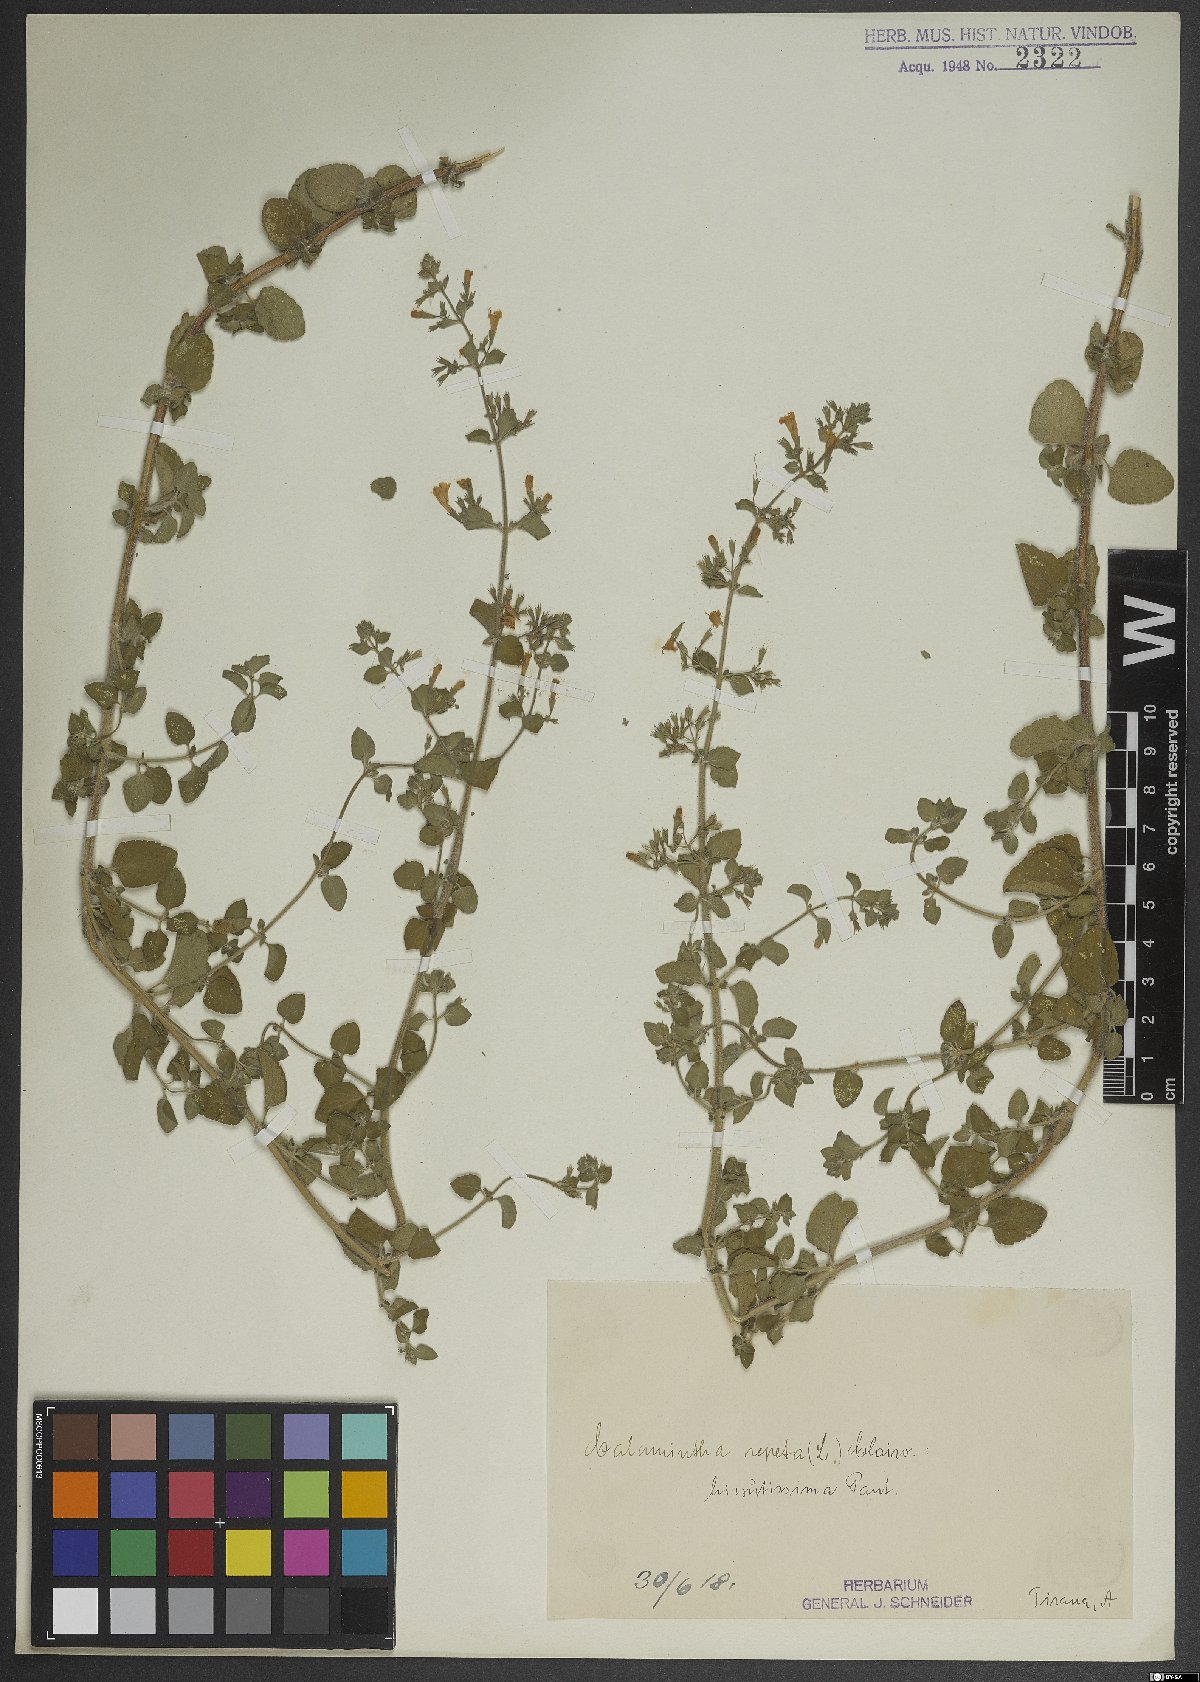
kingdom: Plantae
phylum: Tracheophyta
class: Magnoliopsida
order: Lamiales
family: Lamiaceae
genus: Clinopodium
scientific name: Clinopodium nepeta
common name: Lesser calamint
